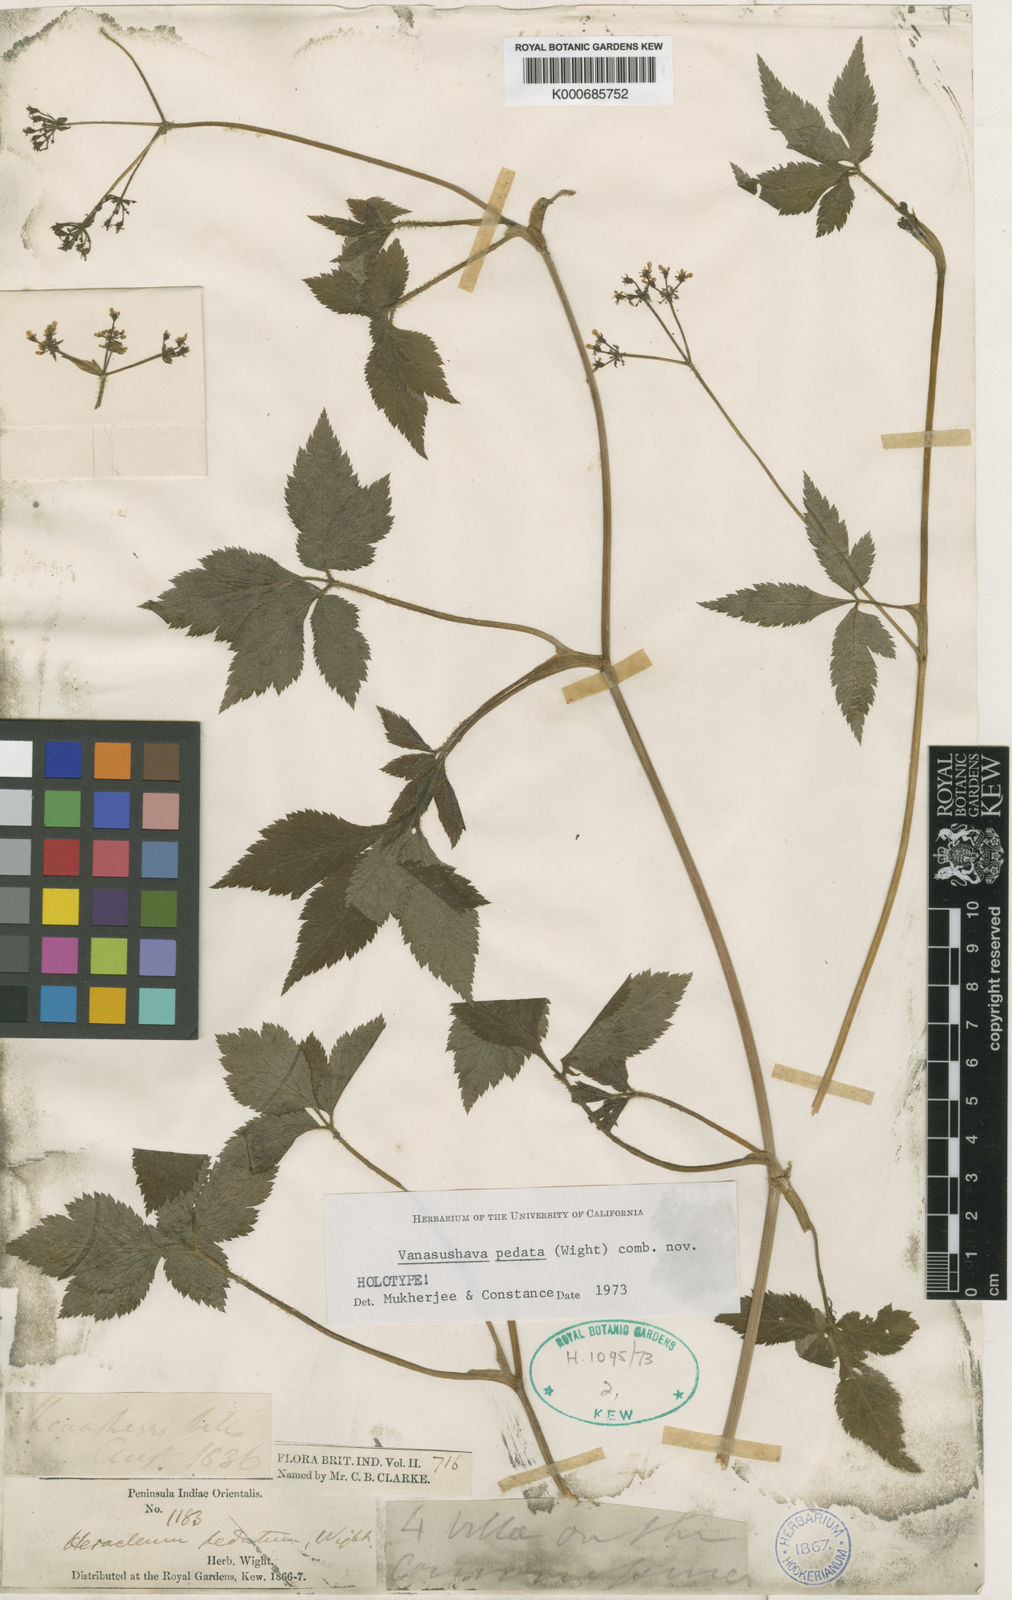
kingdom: Plantae
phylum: Tracheophyta
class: Magnoliopsida
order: Apiales
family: Apiaceae
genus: Vanasushava
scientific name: Vanasushava pedata
